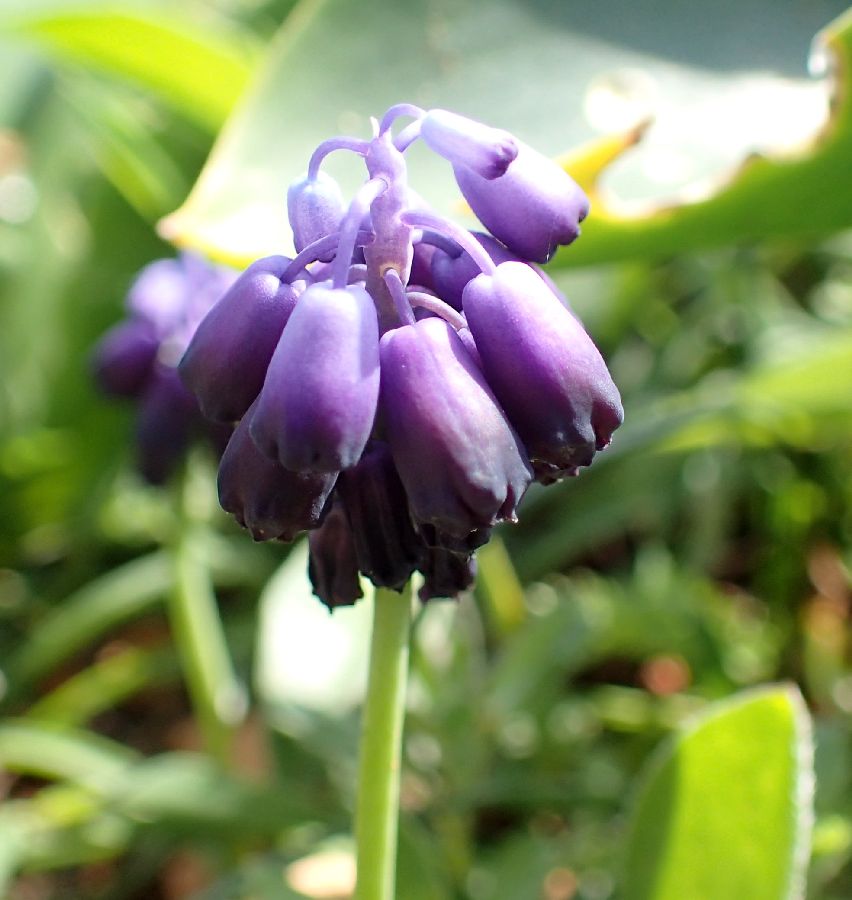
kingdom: Plantae
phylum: Tracheophyta
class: Liliopsida
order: Asparagales
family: Asparagaceae
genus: Muscari
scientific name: Muscari commutatum
